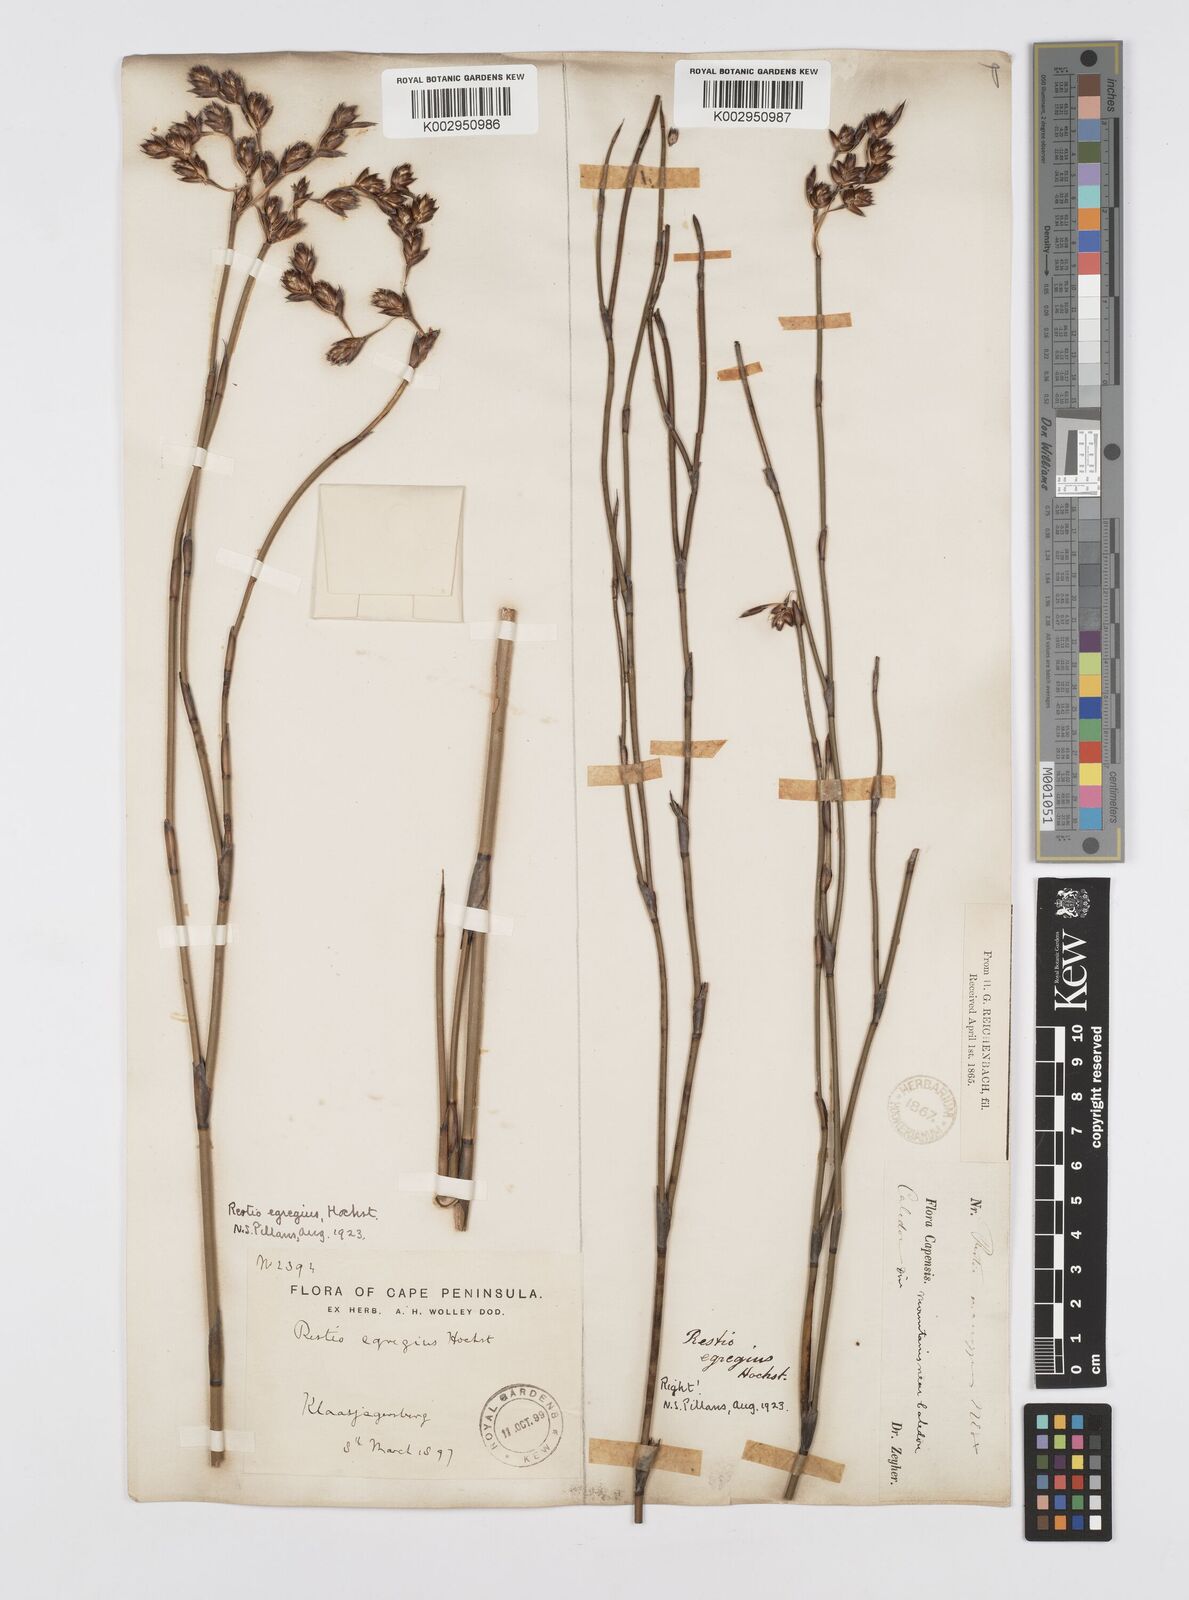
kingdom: Plantae
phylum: Tracheophyta
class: Liliopsida
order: Poales
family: Restionaceae
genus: Restio
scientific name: Restio egregius
